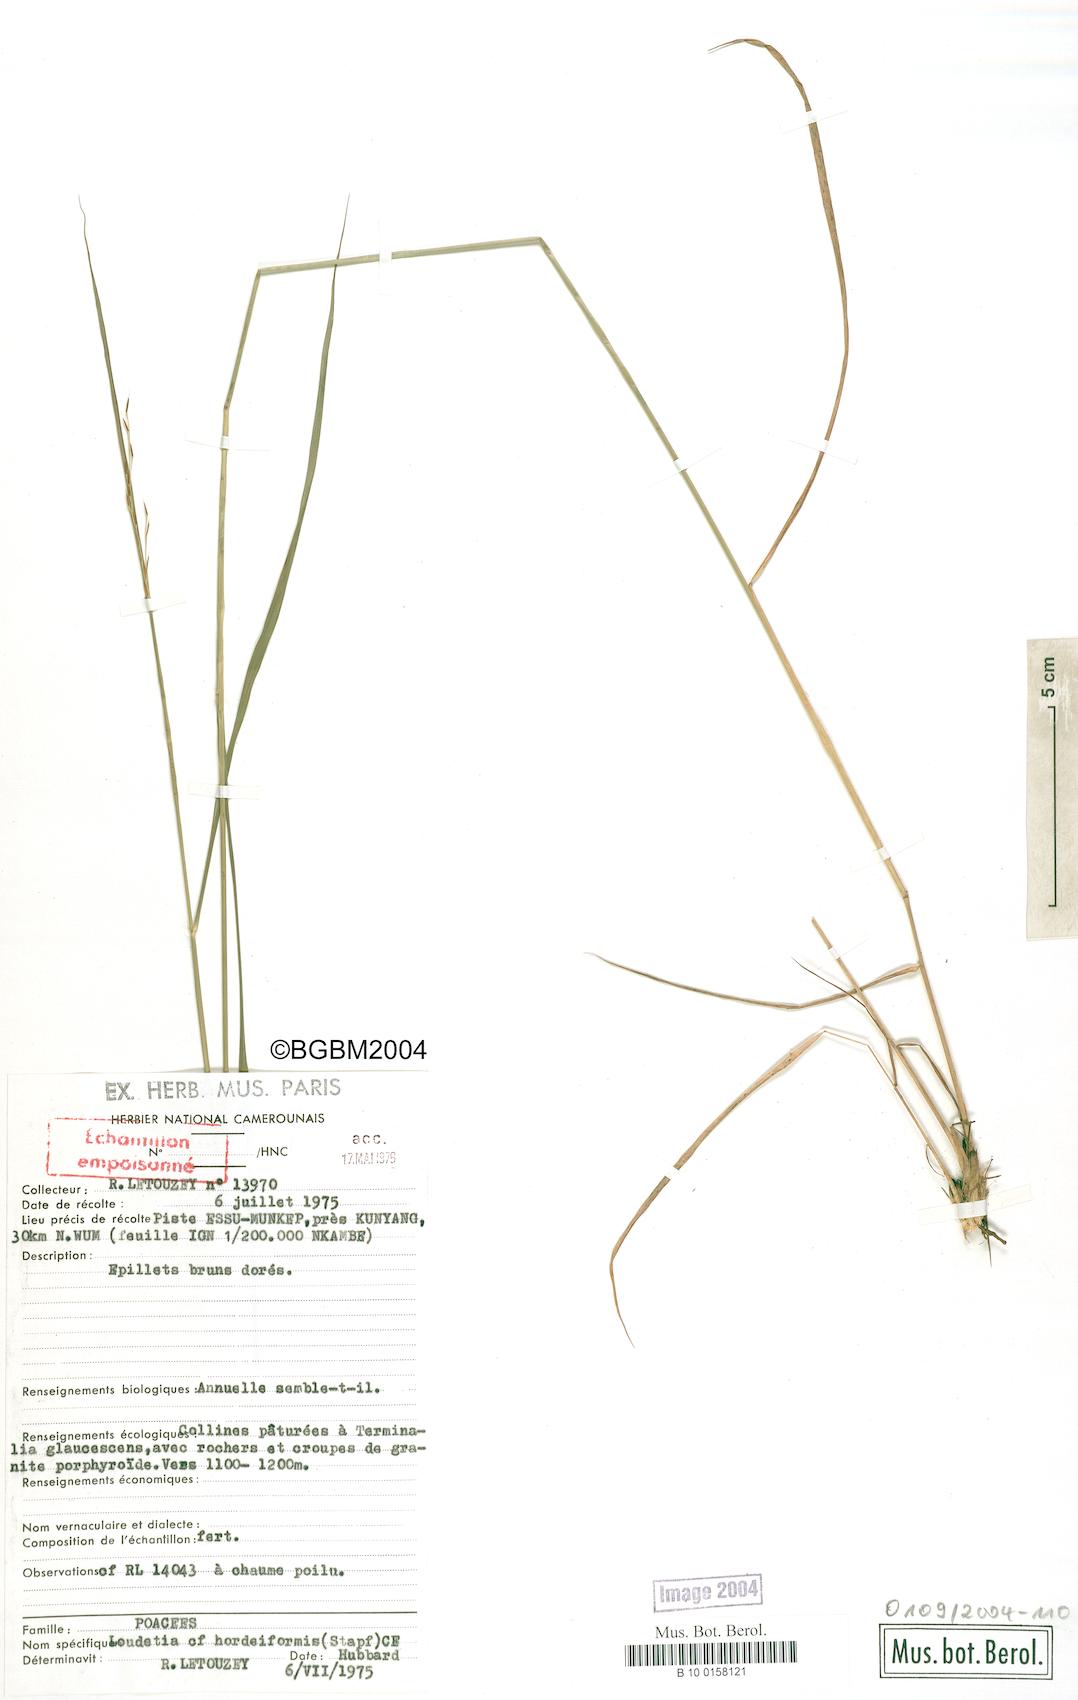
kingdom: Plantae
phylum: Tracheophyta
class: Liliopsida
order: Poales
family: Poaceae
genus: Loudetia
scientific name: Loudetia hordeiformis
